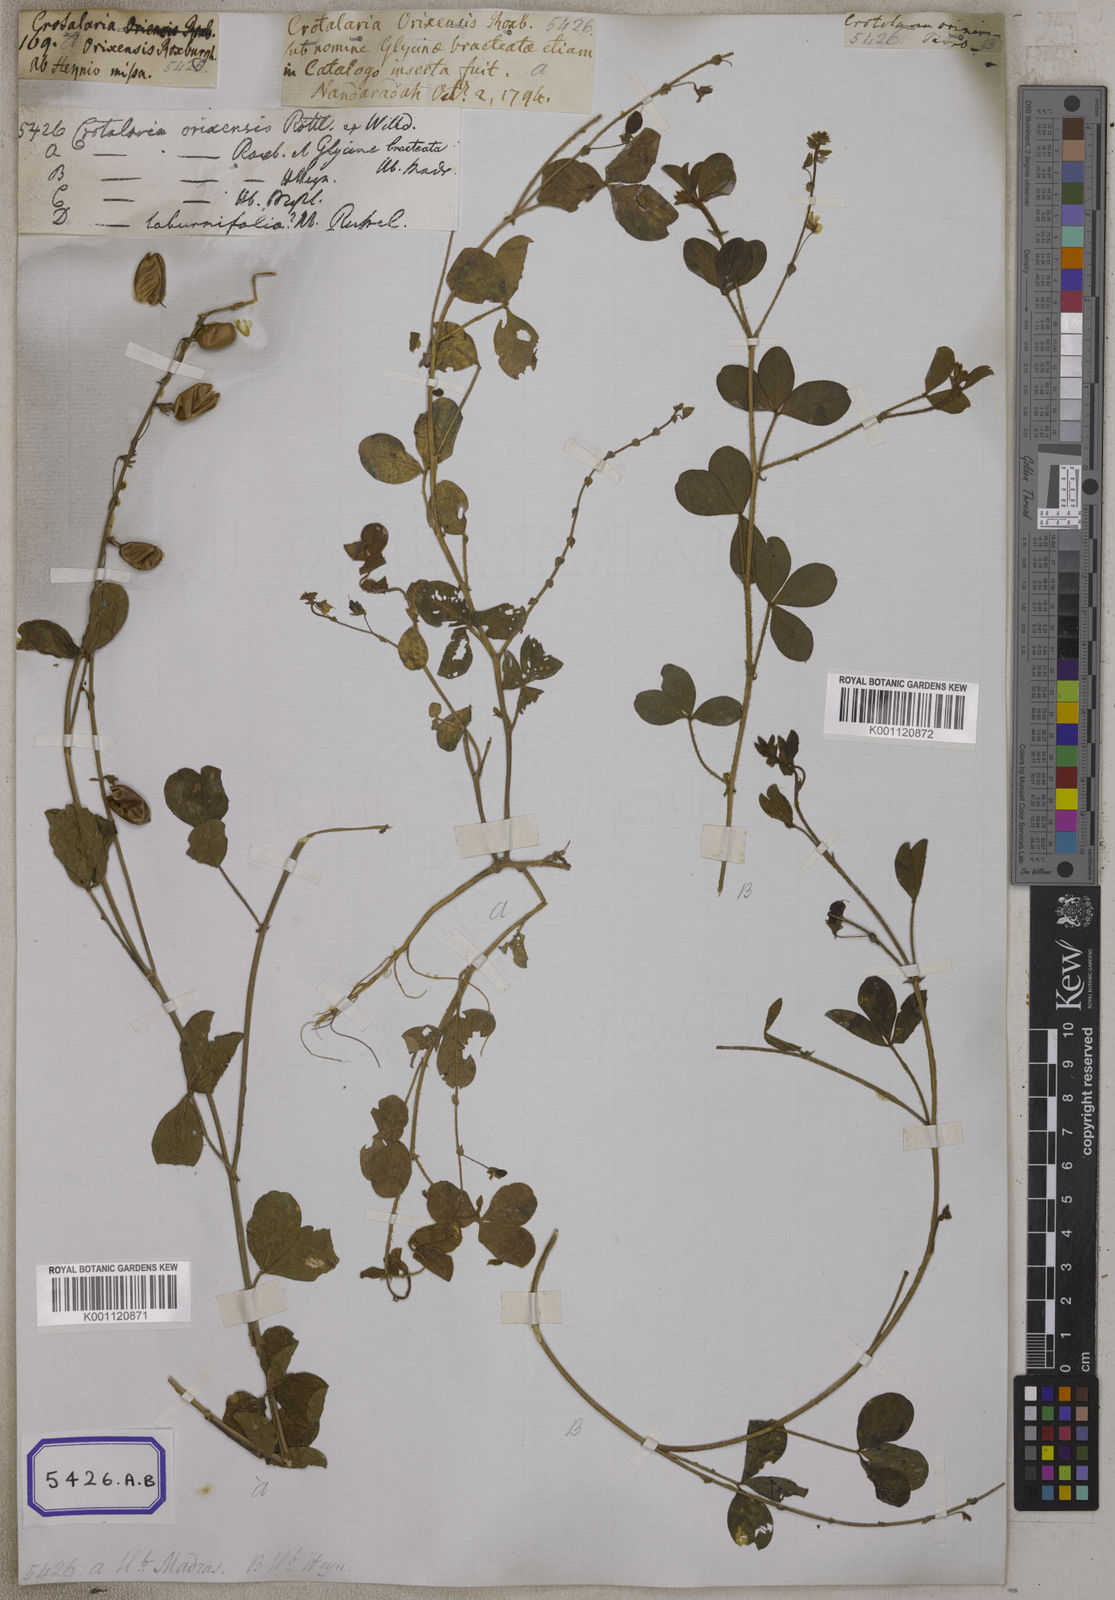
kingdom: Plantae
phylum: Tracheophyta
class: Magnoliopsida
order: Fabales
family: Fabaceae
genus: Crotalaria
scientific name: Crotalaria orixensis
